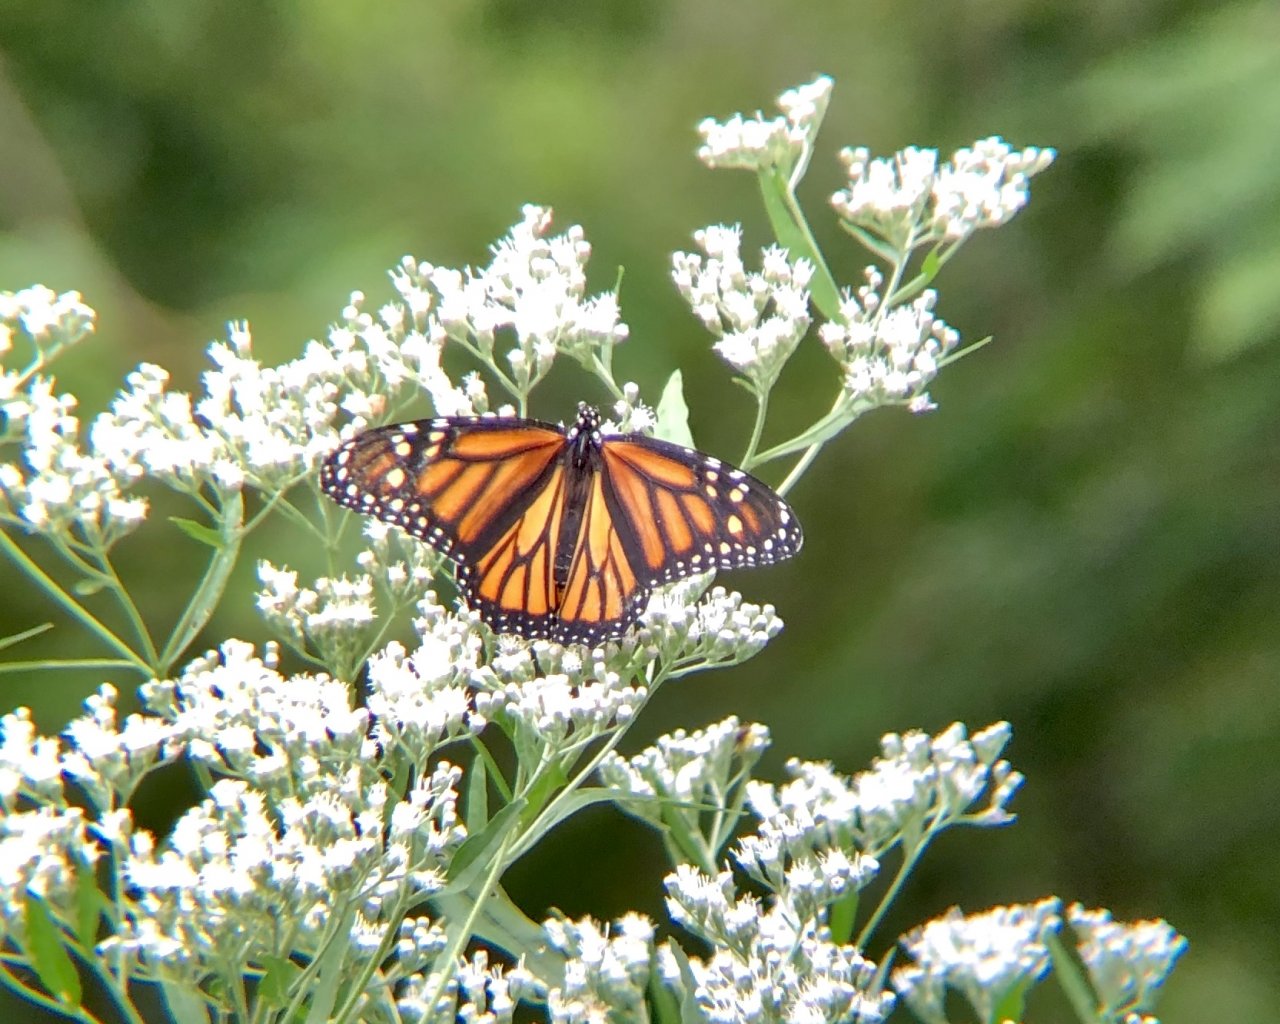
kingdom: Animalia
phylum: Arthropoda
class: Insecta
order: Lepidoptera
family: Nymphalidae
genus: Danaus
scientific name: Danaus plexippus
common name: Monarch
